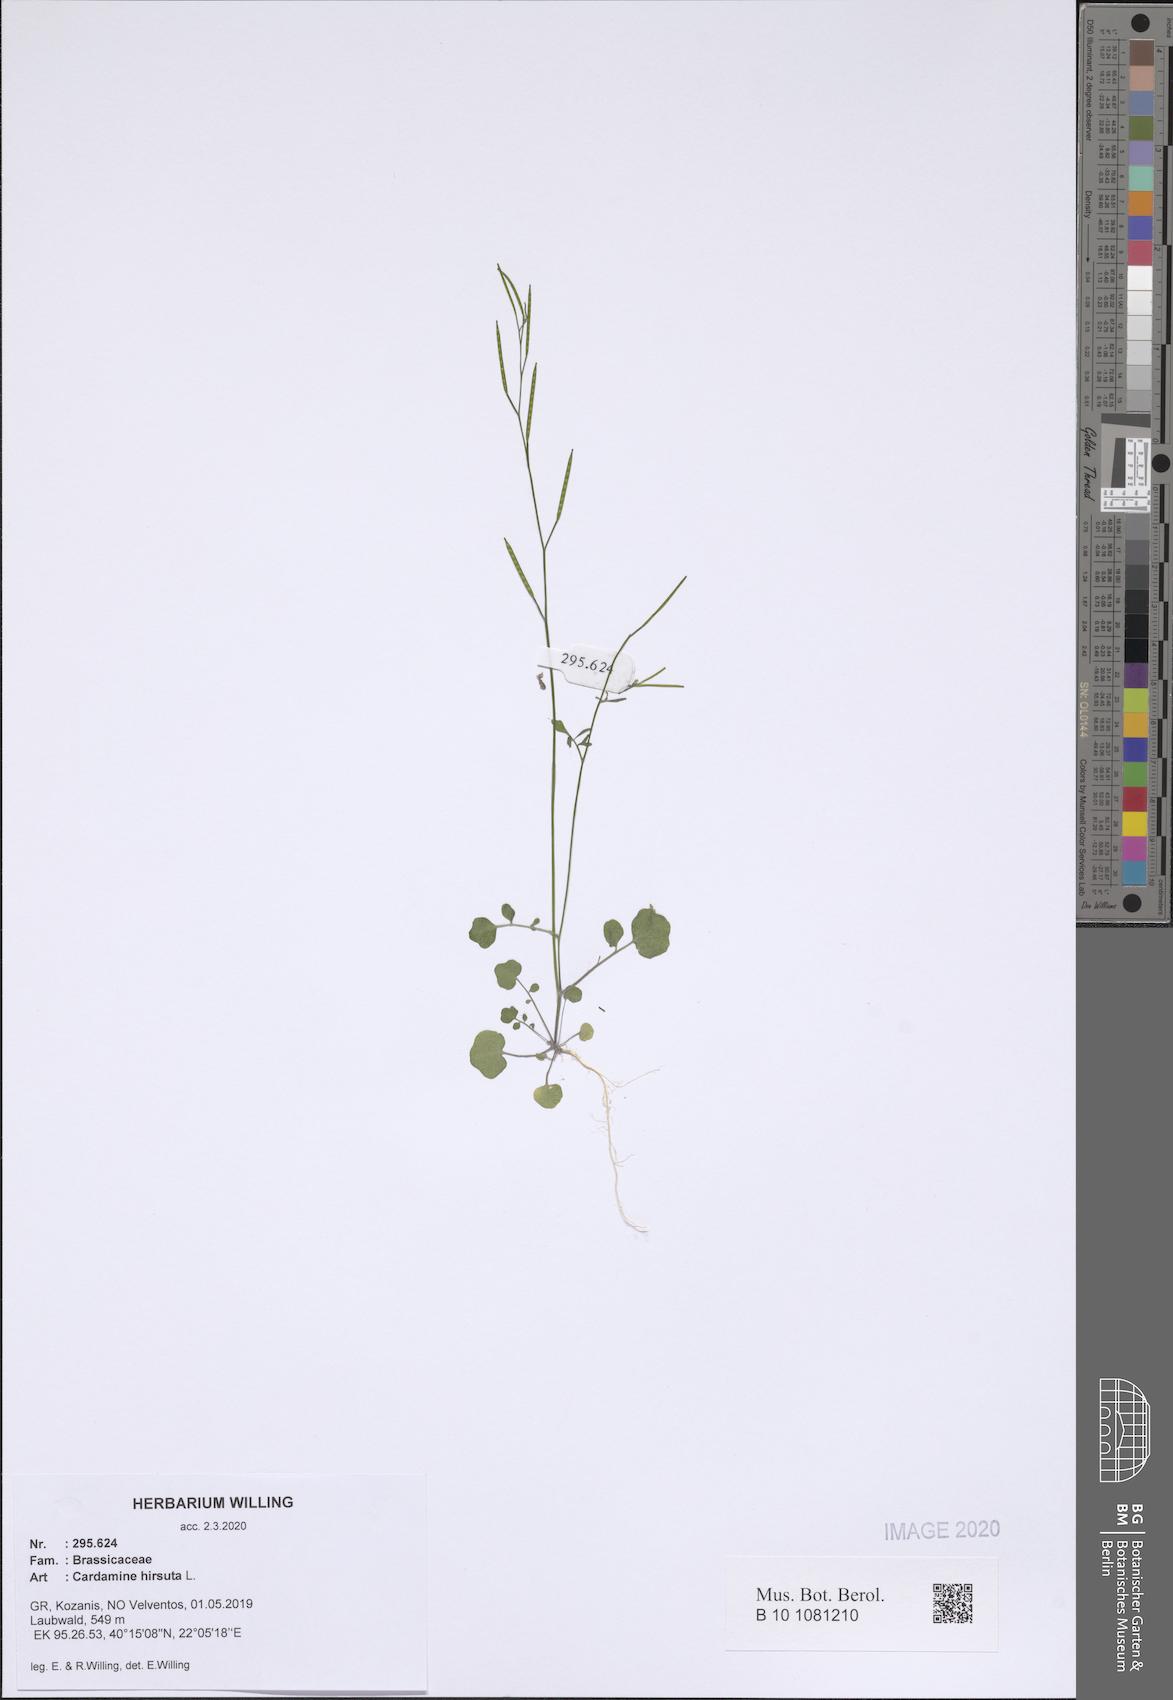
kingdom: Plantae
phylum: Tracheophyta
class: Magnoliopsida
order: Brassicales
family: Brassicaceae
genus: Cardamine
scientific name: Cardamine hirsuta
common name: Hairy bittercress
